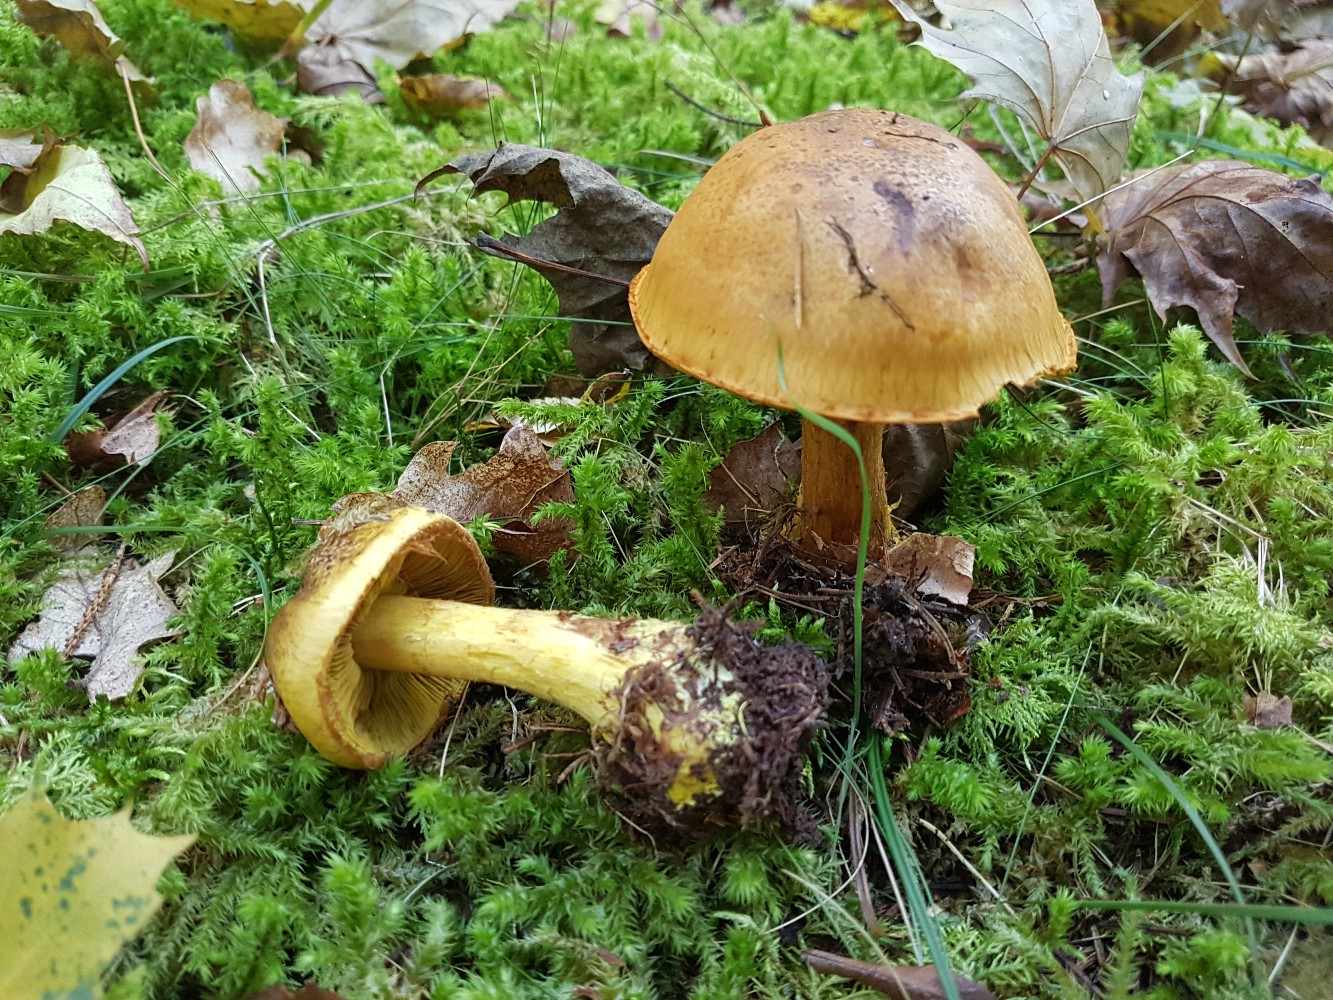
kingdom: Fungi
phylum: Basidiomycota
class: Agaricomycetes
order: Agaricales
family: Cortinariaceae
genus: Calonarius
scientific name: Calonarius meinhardii
